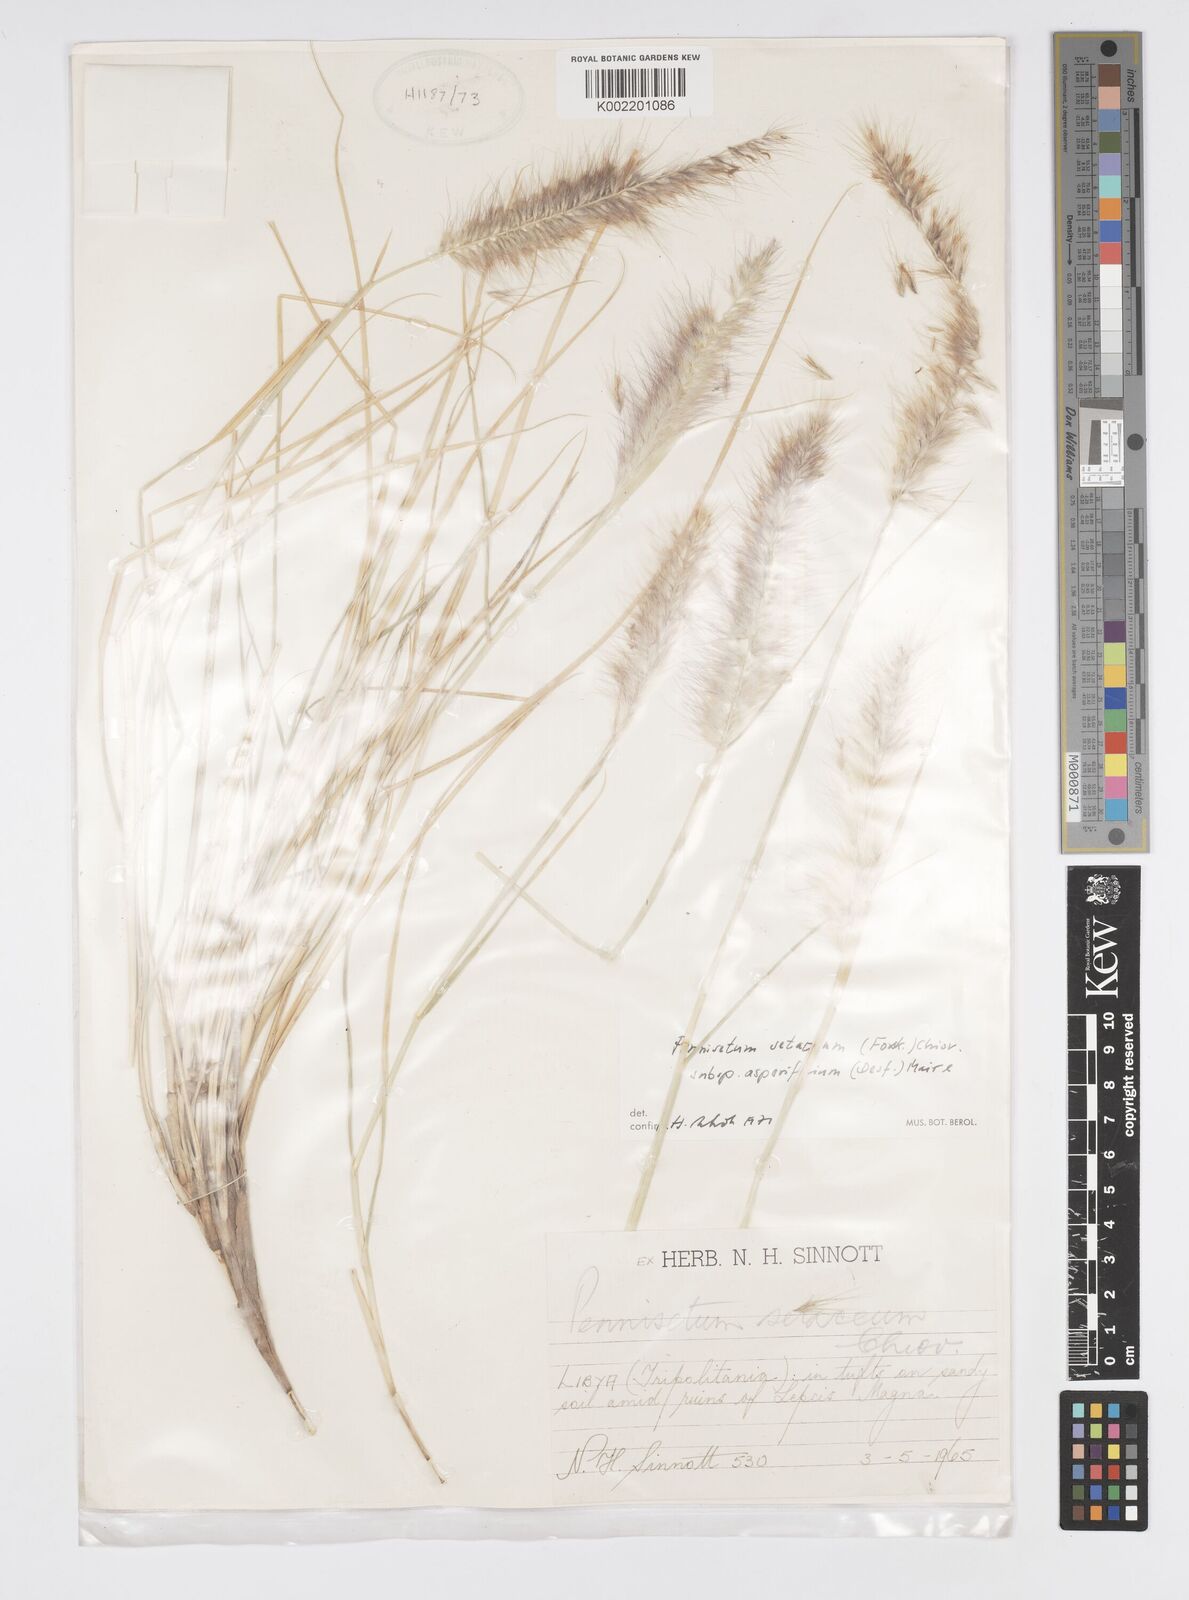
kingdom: Plantae
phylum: Tracheophyta
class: Liliopsida
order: Poales
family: Poaceae
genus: Cenchrus
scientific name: Cenchrus setaceus
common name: Crimson fountaingrass
